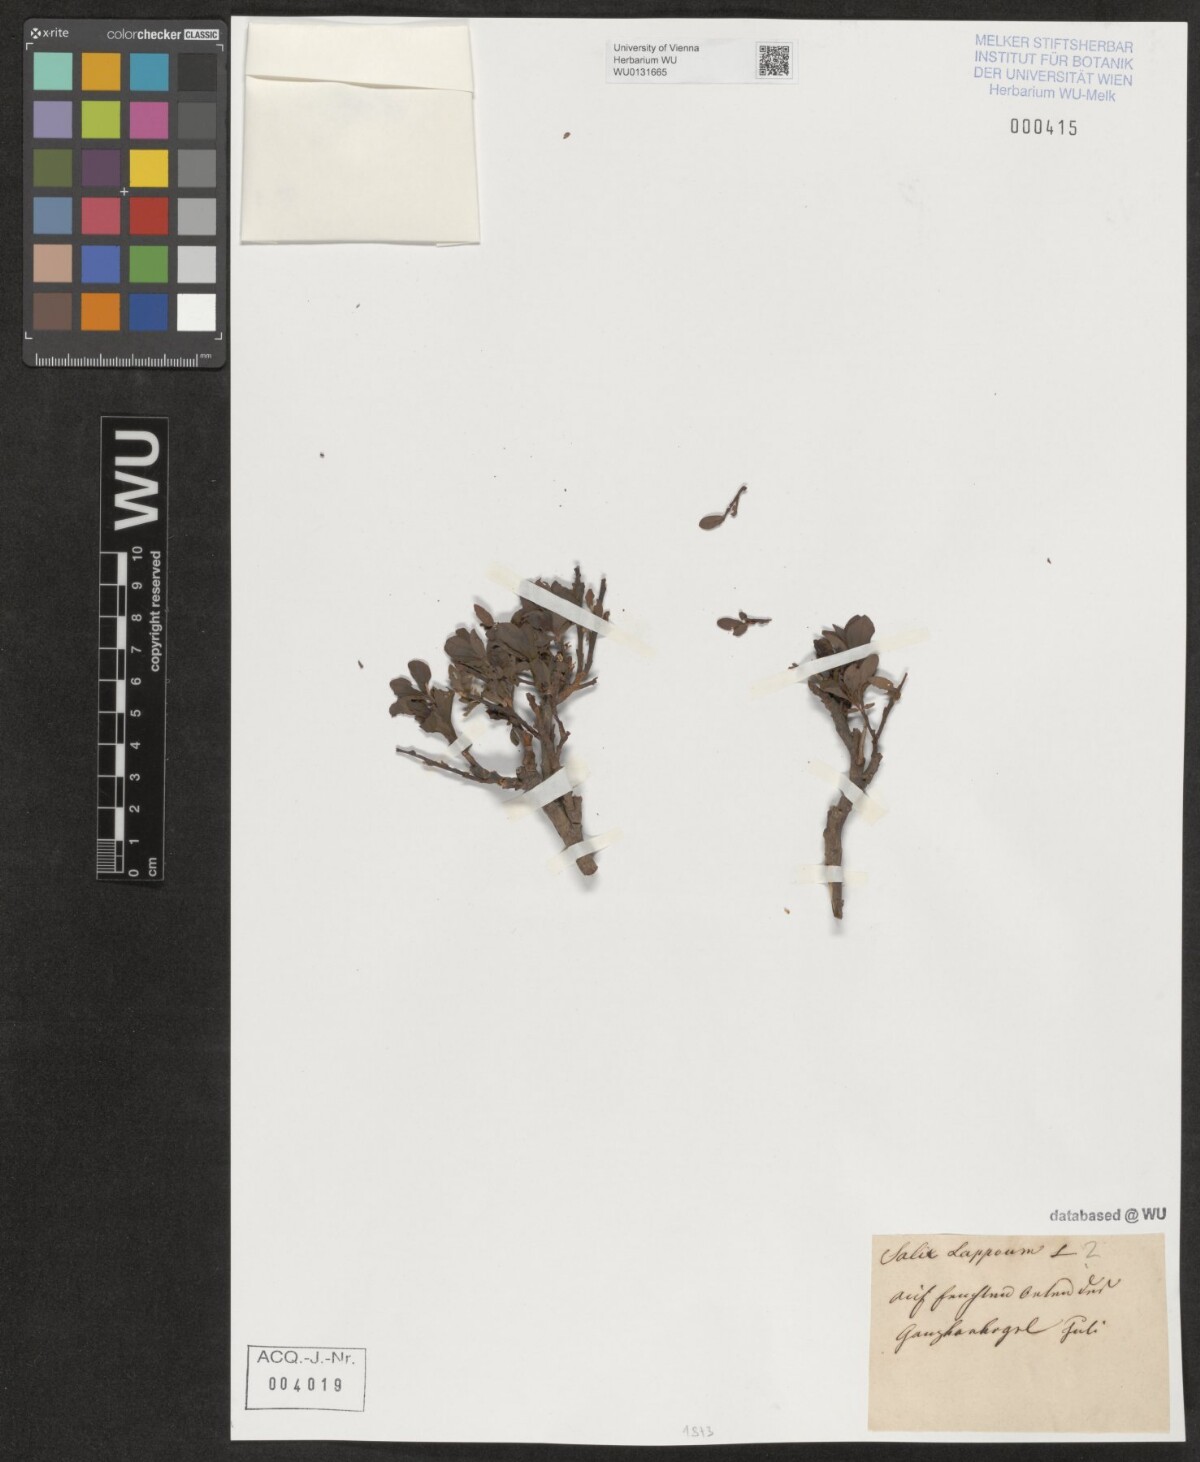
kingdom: Plantae
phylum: Tracheophyta
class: Magnoliopsida
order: Malpighiales
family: Salicaceae
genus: Salix
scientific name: Salix lapponum
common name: Downy willow
